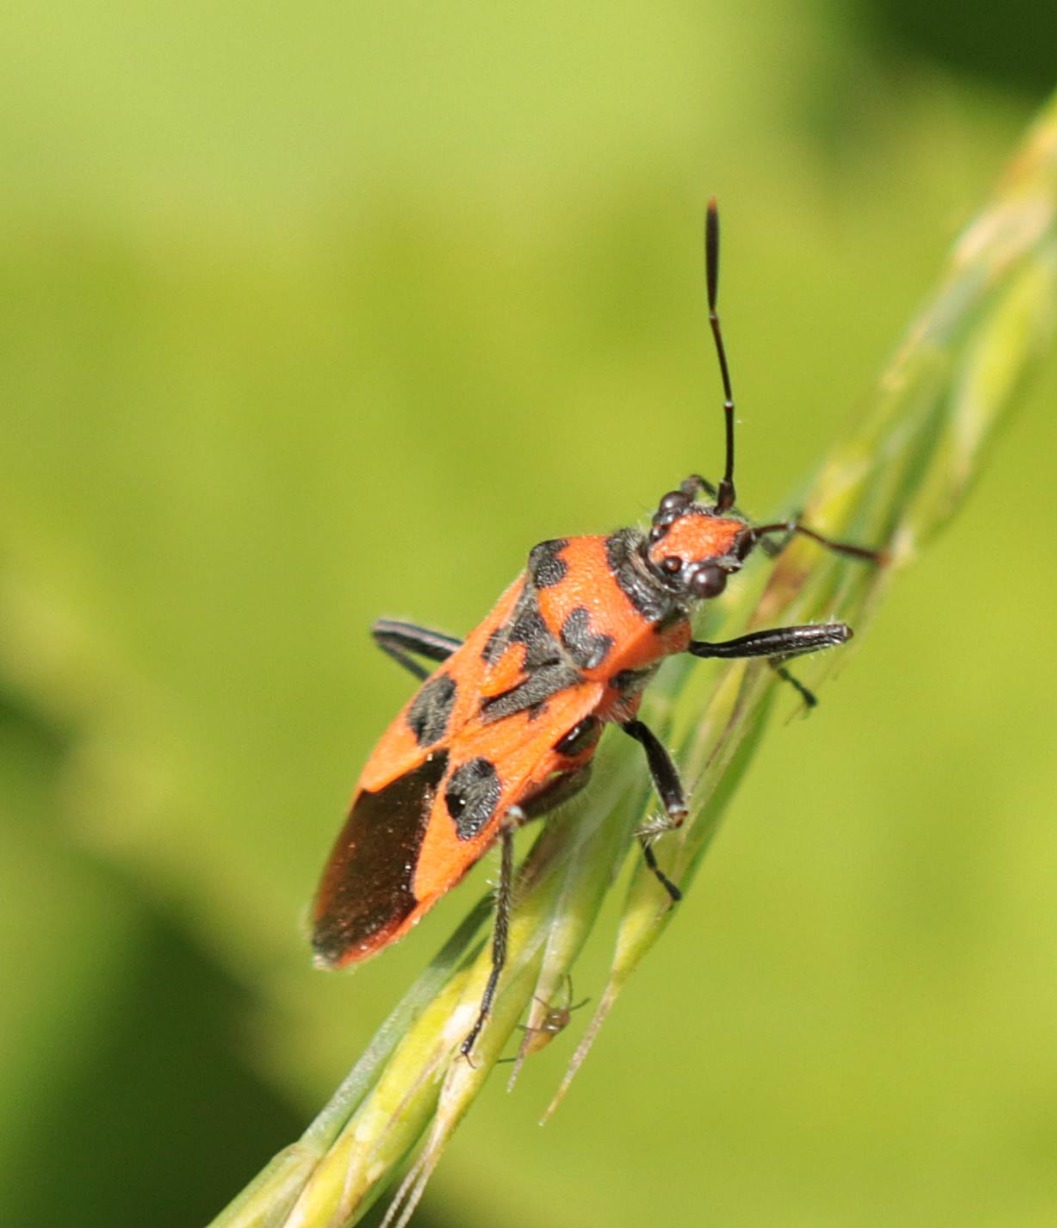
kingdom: Animalia
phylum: Arthropoda
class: Insecta
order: Hemiptera
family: Rhopalidae
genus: Corizus
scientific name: Corizus hyoscyami
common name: Rød kanttæge
